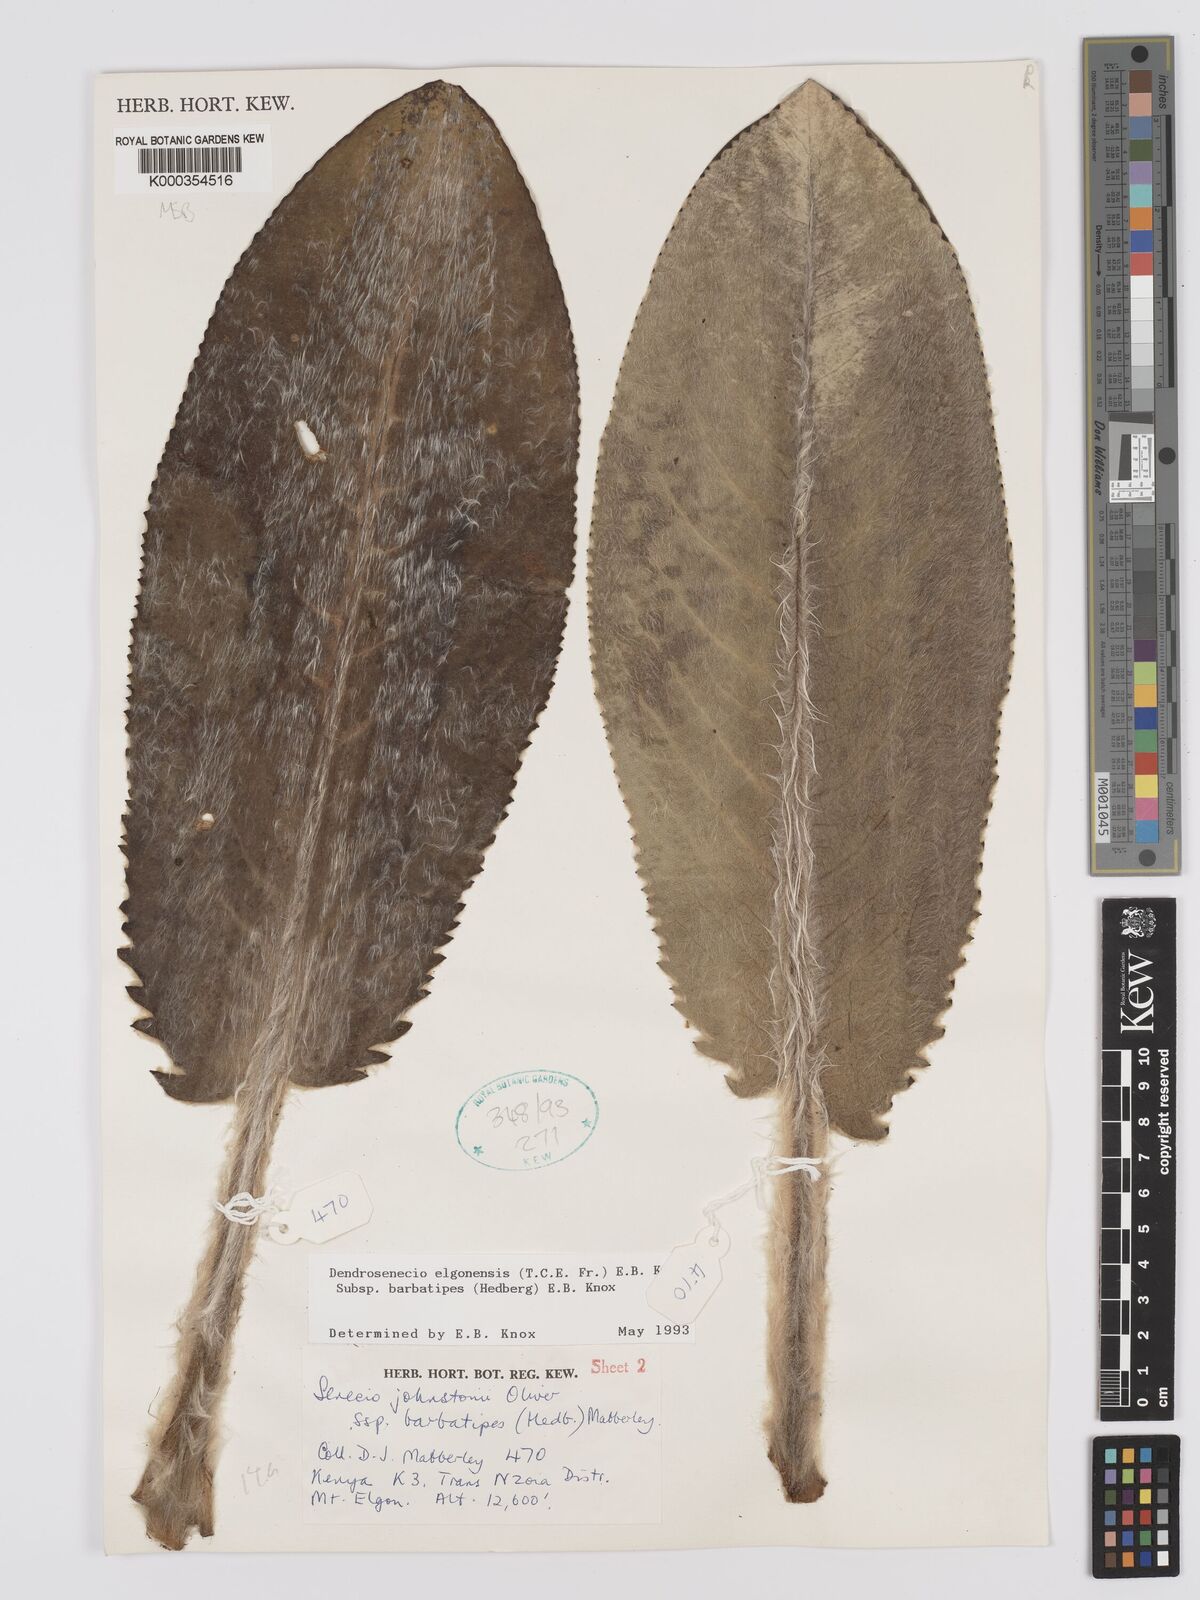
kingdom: Plantae
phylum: Tracheophyta
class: Magnoliopsida
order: Asterales
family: Asteraceae
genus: Dendrosenecio
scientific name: Dendrosenecio elgonensis
